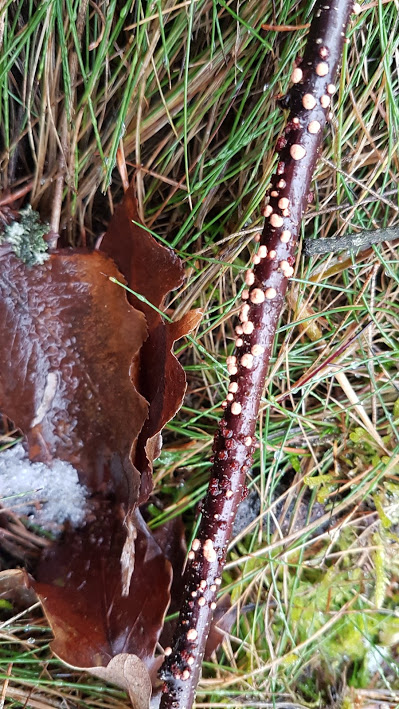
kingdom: Fungi
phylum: Ascomycota
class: Sordariomycetes
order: Hypocreales
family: Nectriaceae
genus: Nectria
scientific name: Nectria cinnabarina
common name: almindelig cinnobersvamp
